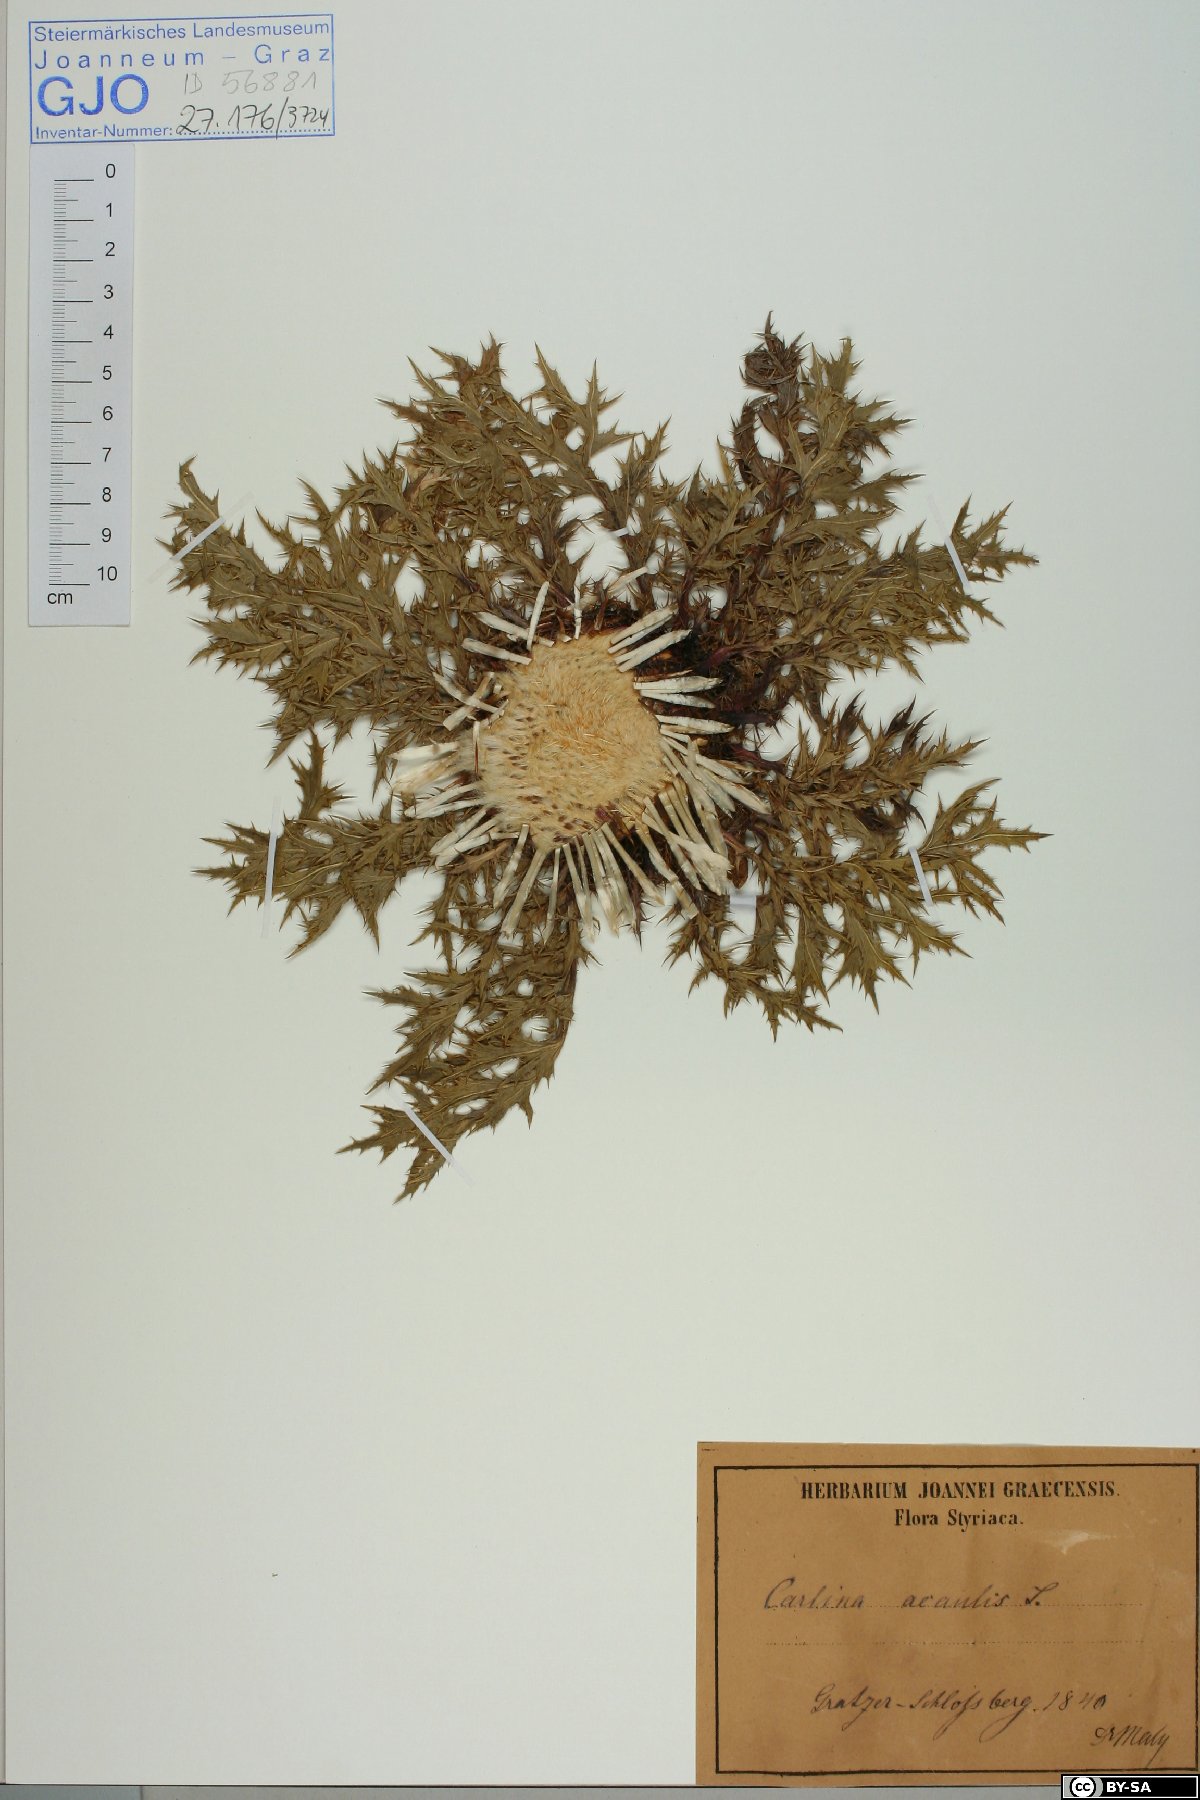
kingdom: Plantae
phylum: Tracheophyta
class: Magnoliopsida
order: Asterales
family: Asteraceae
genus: Carlina
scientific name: Carlina acaulis
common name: Stemless carline thistle
